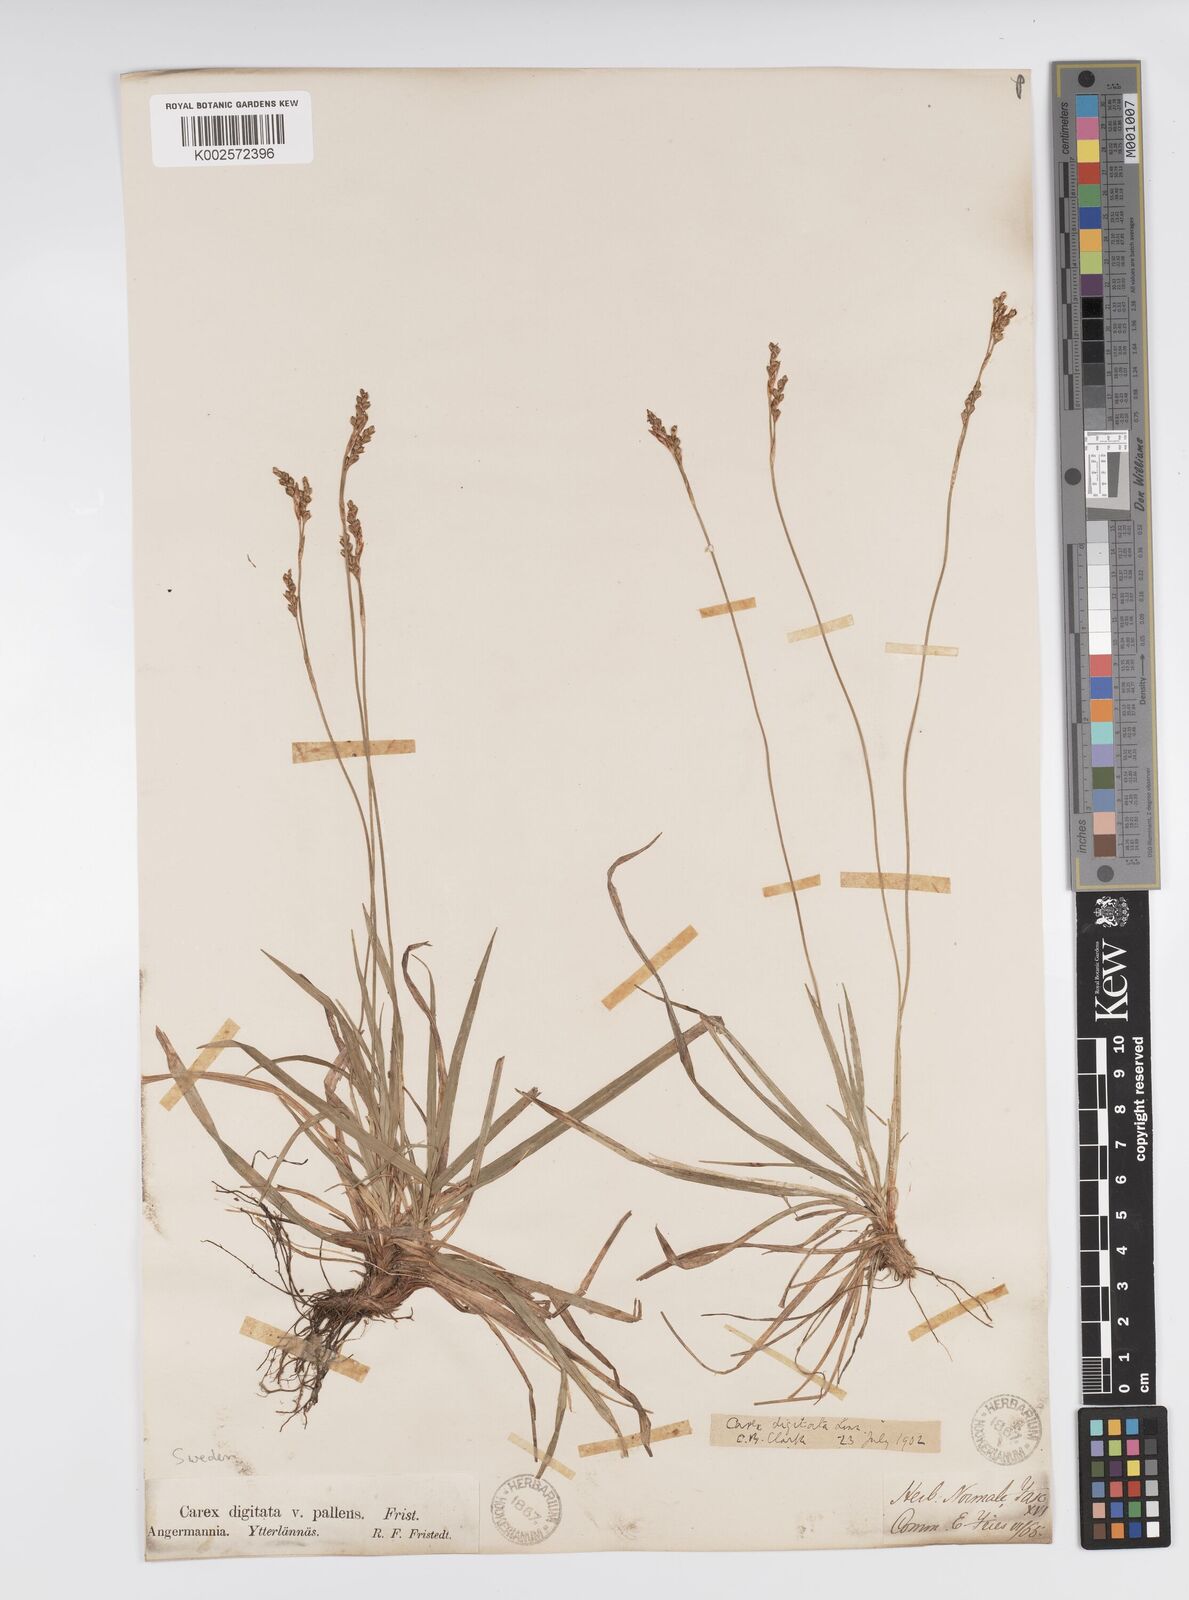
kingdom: Plantae
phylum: Tracheophyta
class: Liliopsida
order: Poales
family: Cyperaceae
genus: Carex
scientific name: Carex digitata
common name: Fingered sedge
